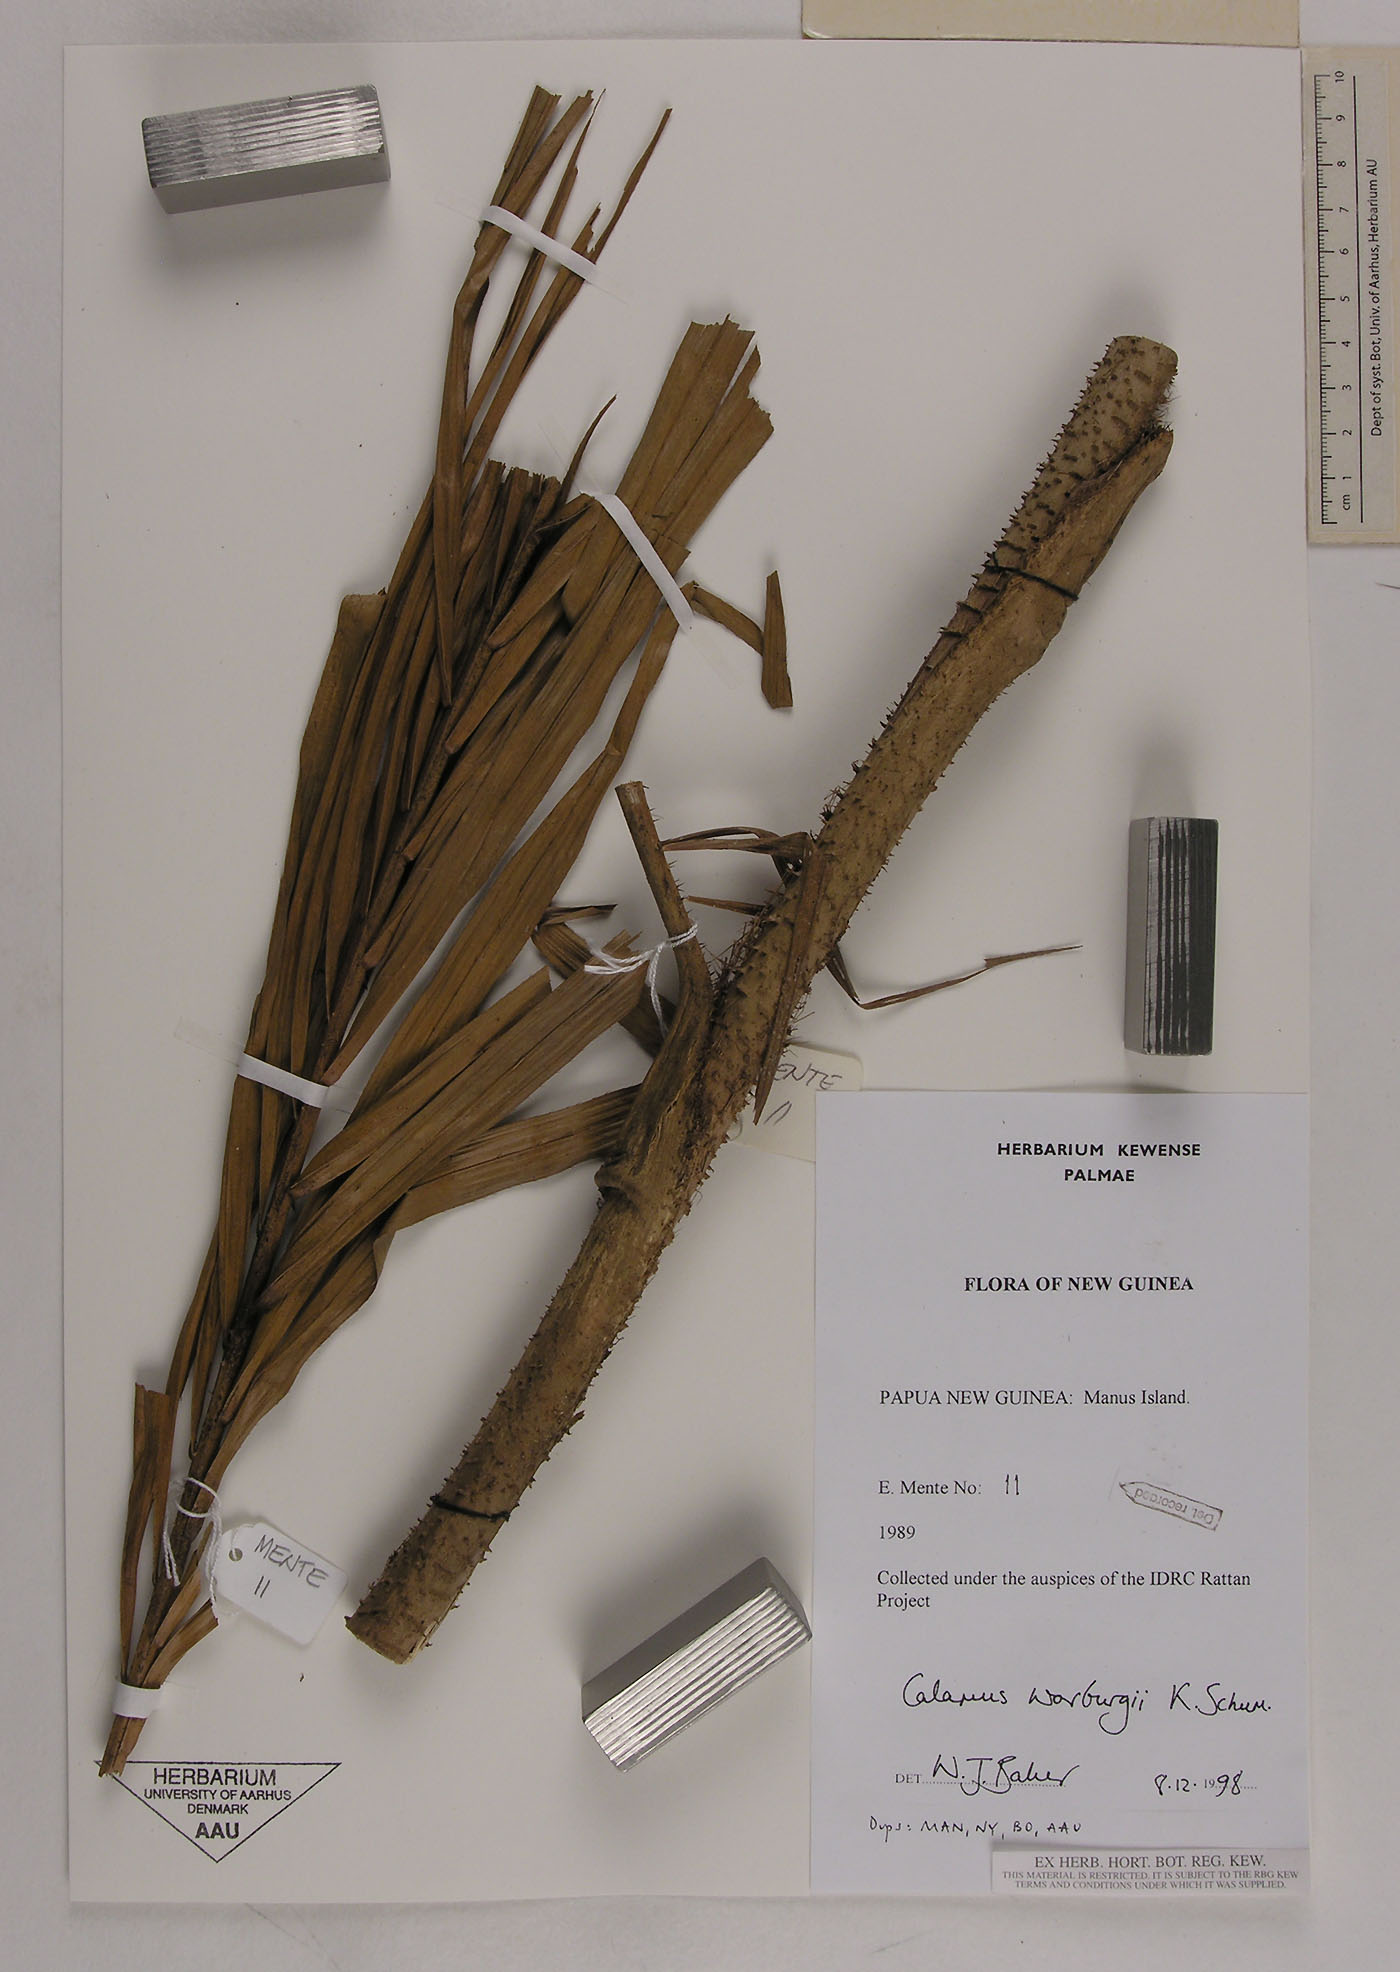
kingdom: Plantae
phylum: Tracheophyta
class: Liliopsida
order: Arecales
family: Arecaceae
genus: Calamus
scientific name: Calamus warburgii
